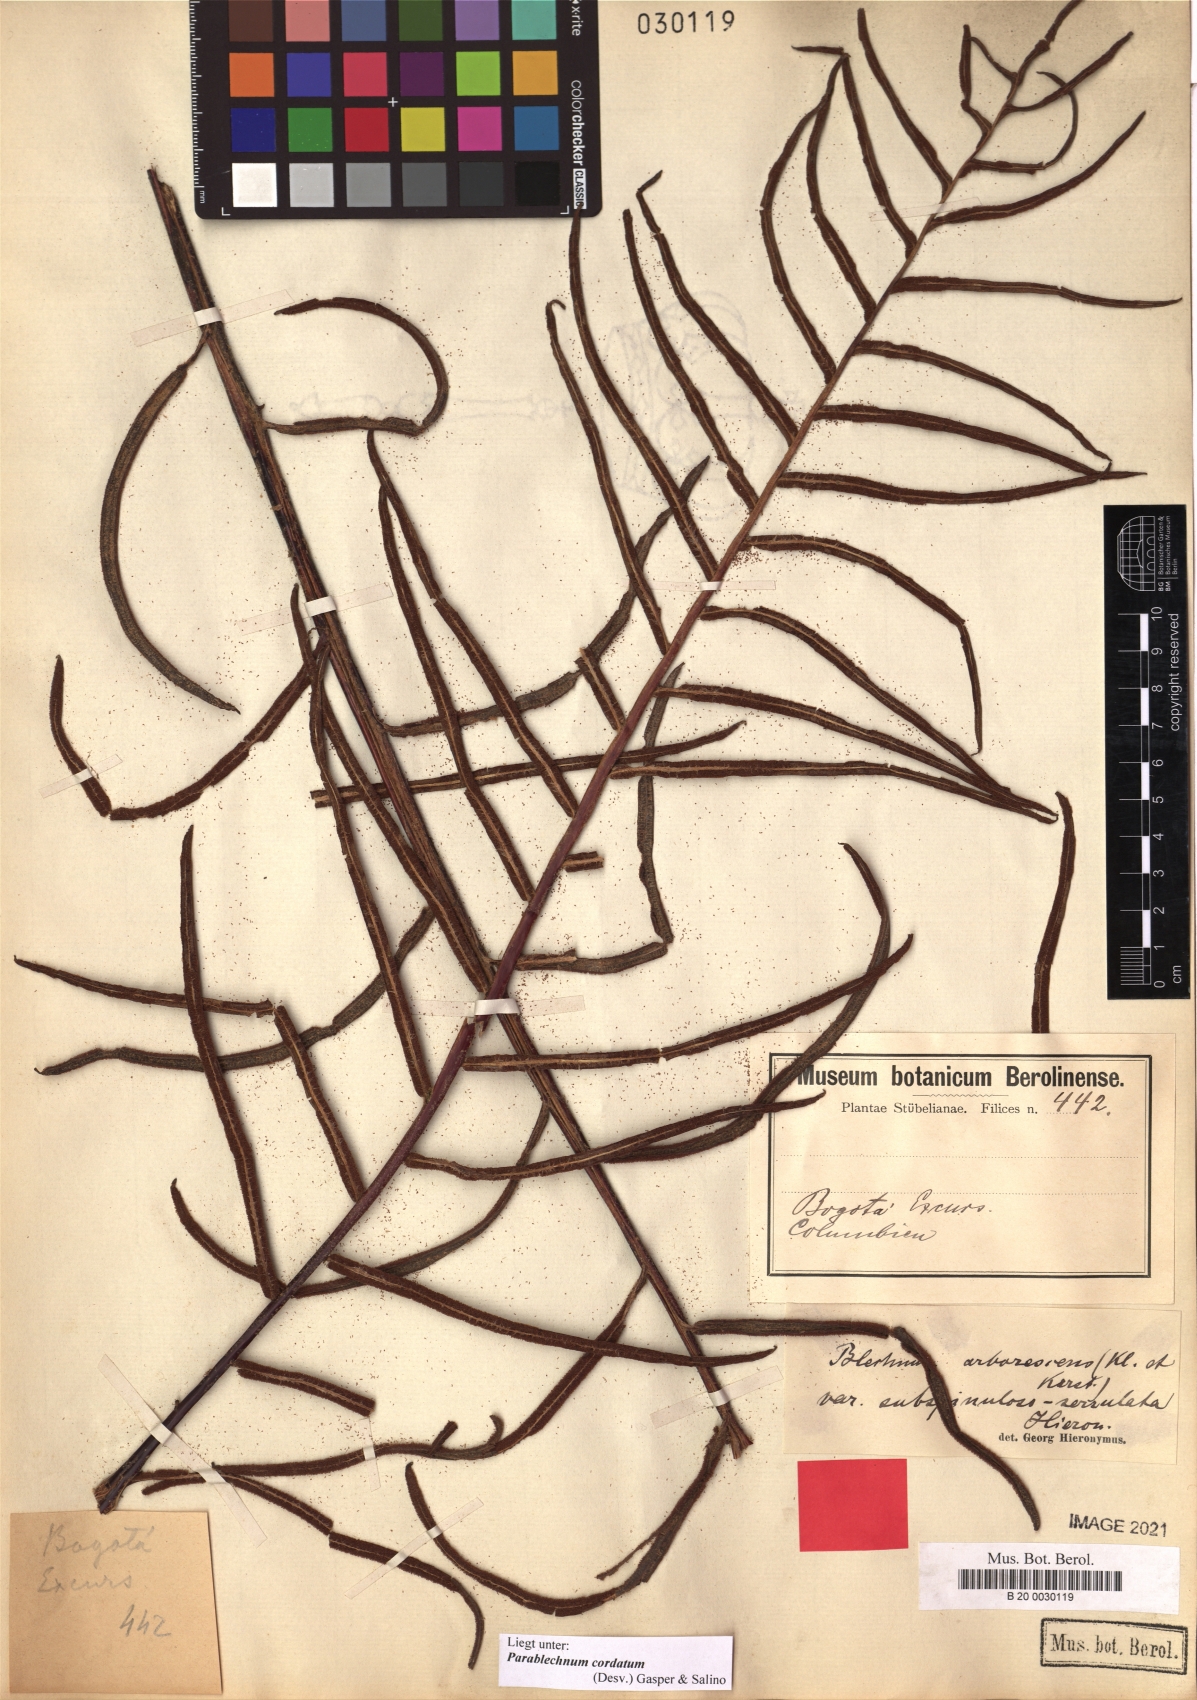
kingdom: Plantae
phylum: Tracheophyta
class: Polypodiopsida
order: Polypodiales
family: Blechnaceae
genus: Parablechnum
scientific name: Parablechnum cordatum
